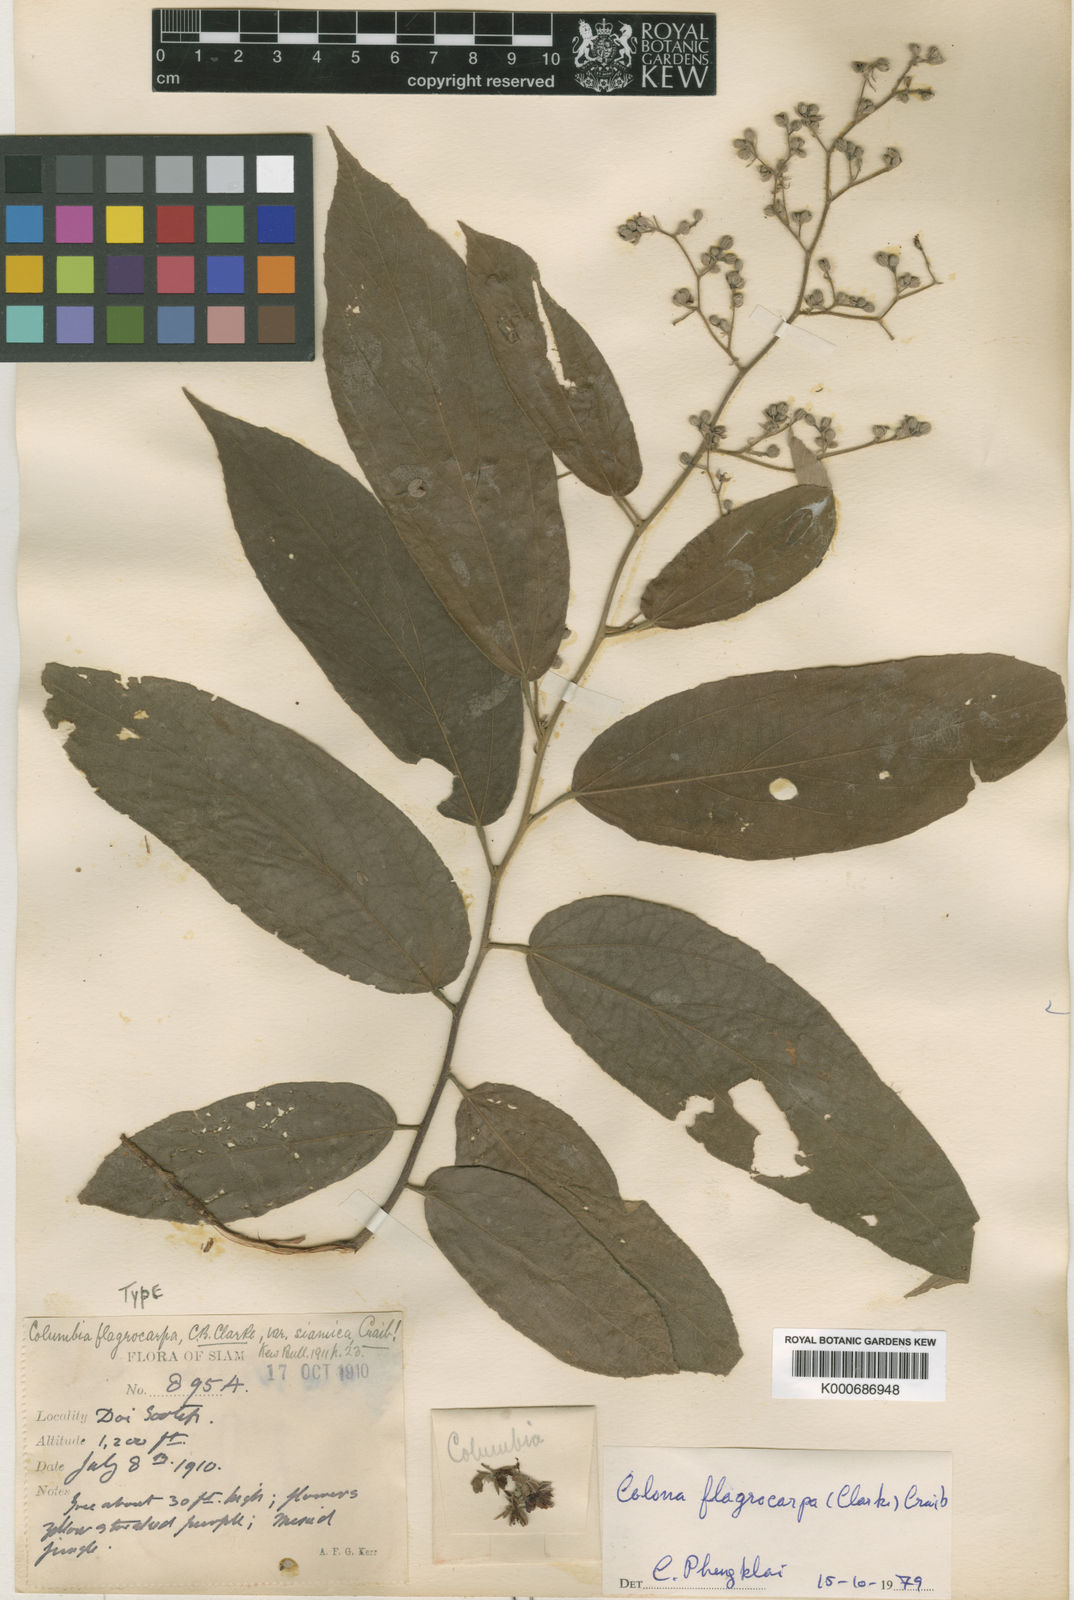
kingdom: Plantae
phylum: Tracheophyta
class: Magnoliopsida
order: Malvales
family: Malvaceae
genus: Colona
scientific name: Colona flagrocarpa
